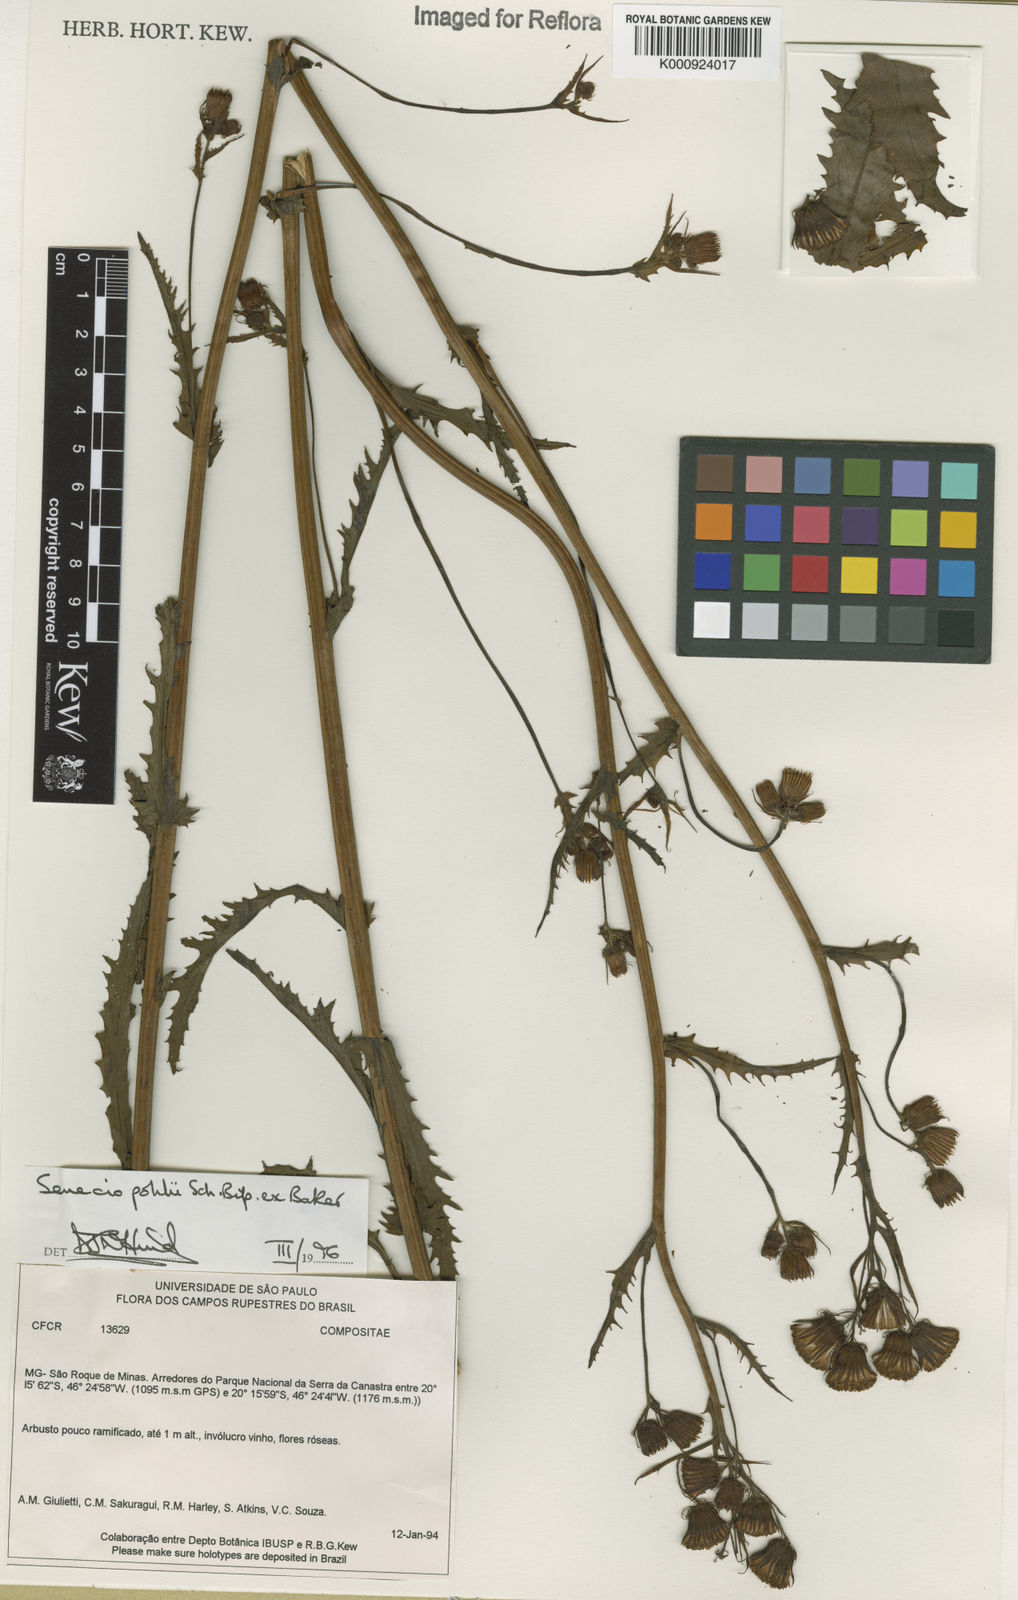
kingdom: Plantae
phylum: Tracheophyta
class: Magnoliopsida
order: Asterales
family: Asteraceae
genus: Pseudogynoxys
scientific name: Pseudogynoxys pohlii
